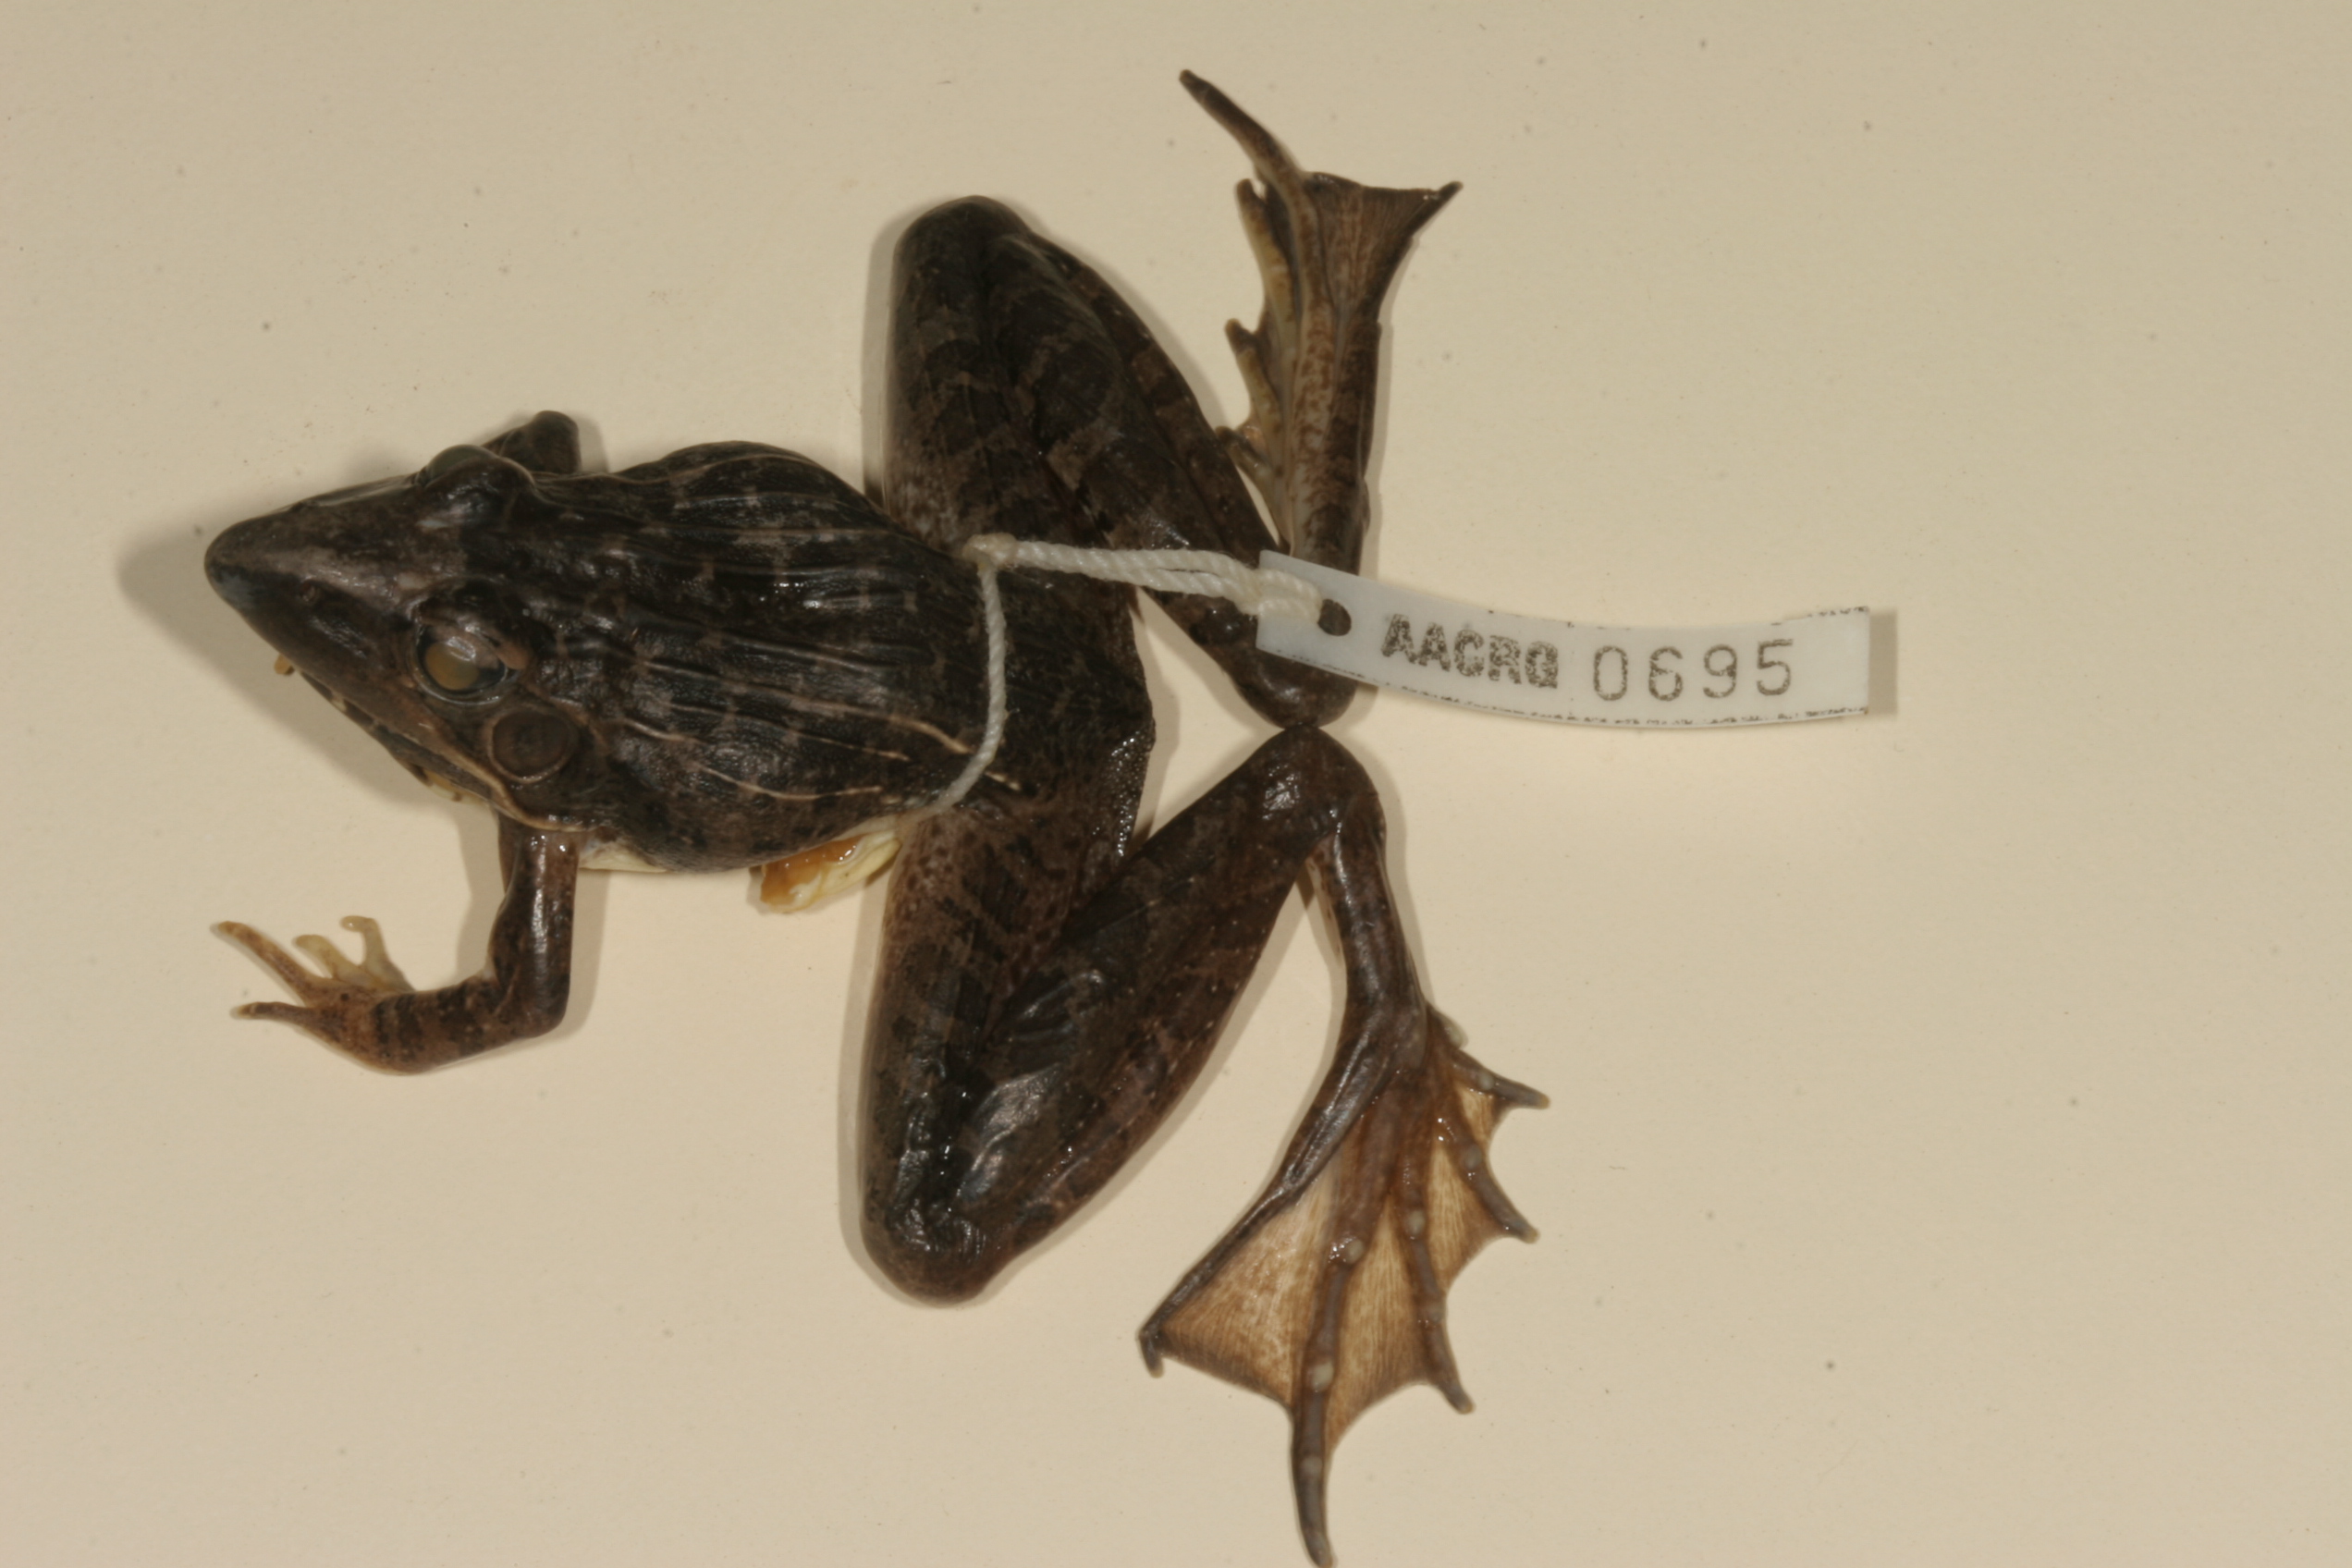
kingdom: Animalia
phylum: Chordata
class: Amphibia
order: Anura
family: Ptychadenidae
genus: Ptychadena
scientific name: Ptychadena oxyrhynchus
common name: Sharp-nosed ridged frog
